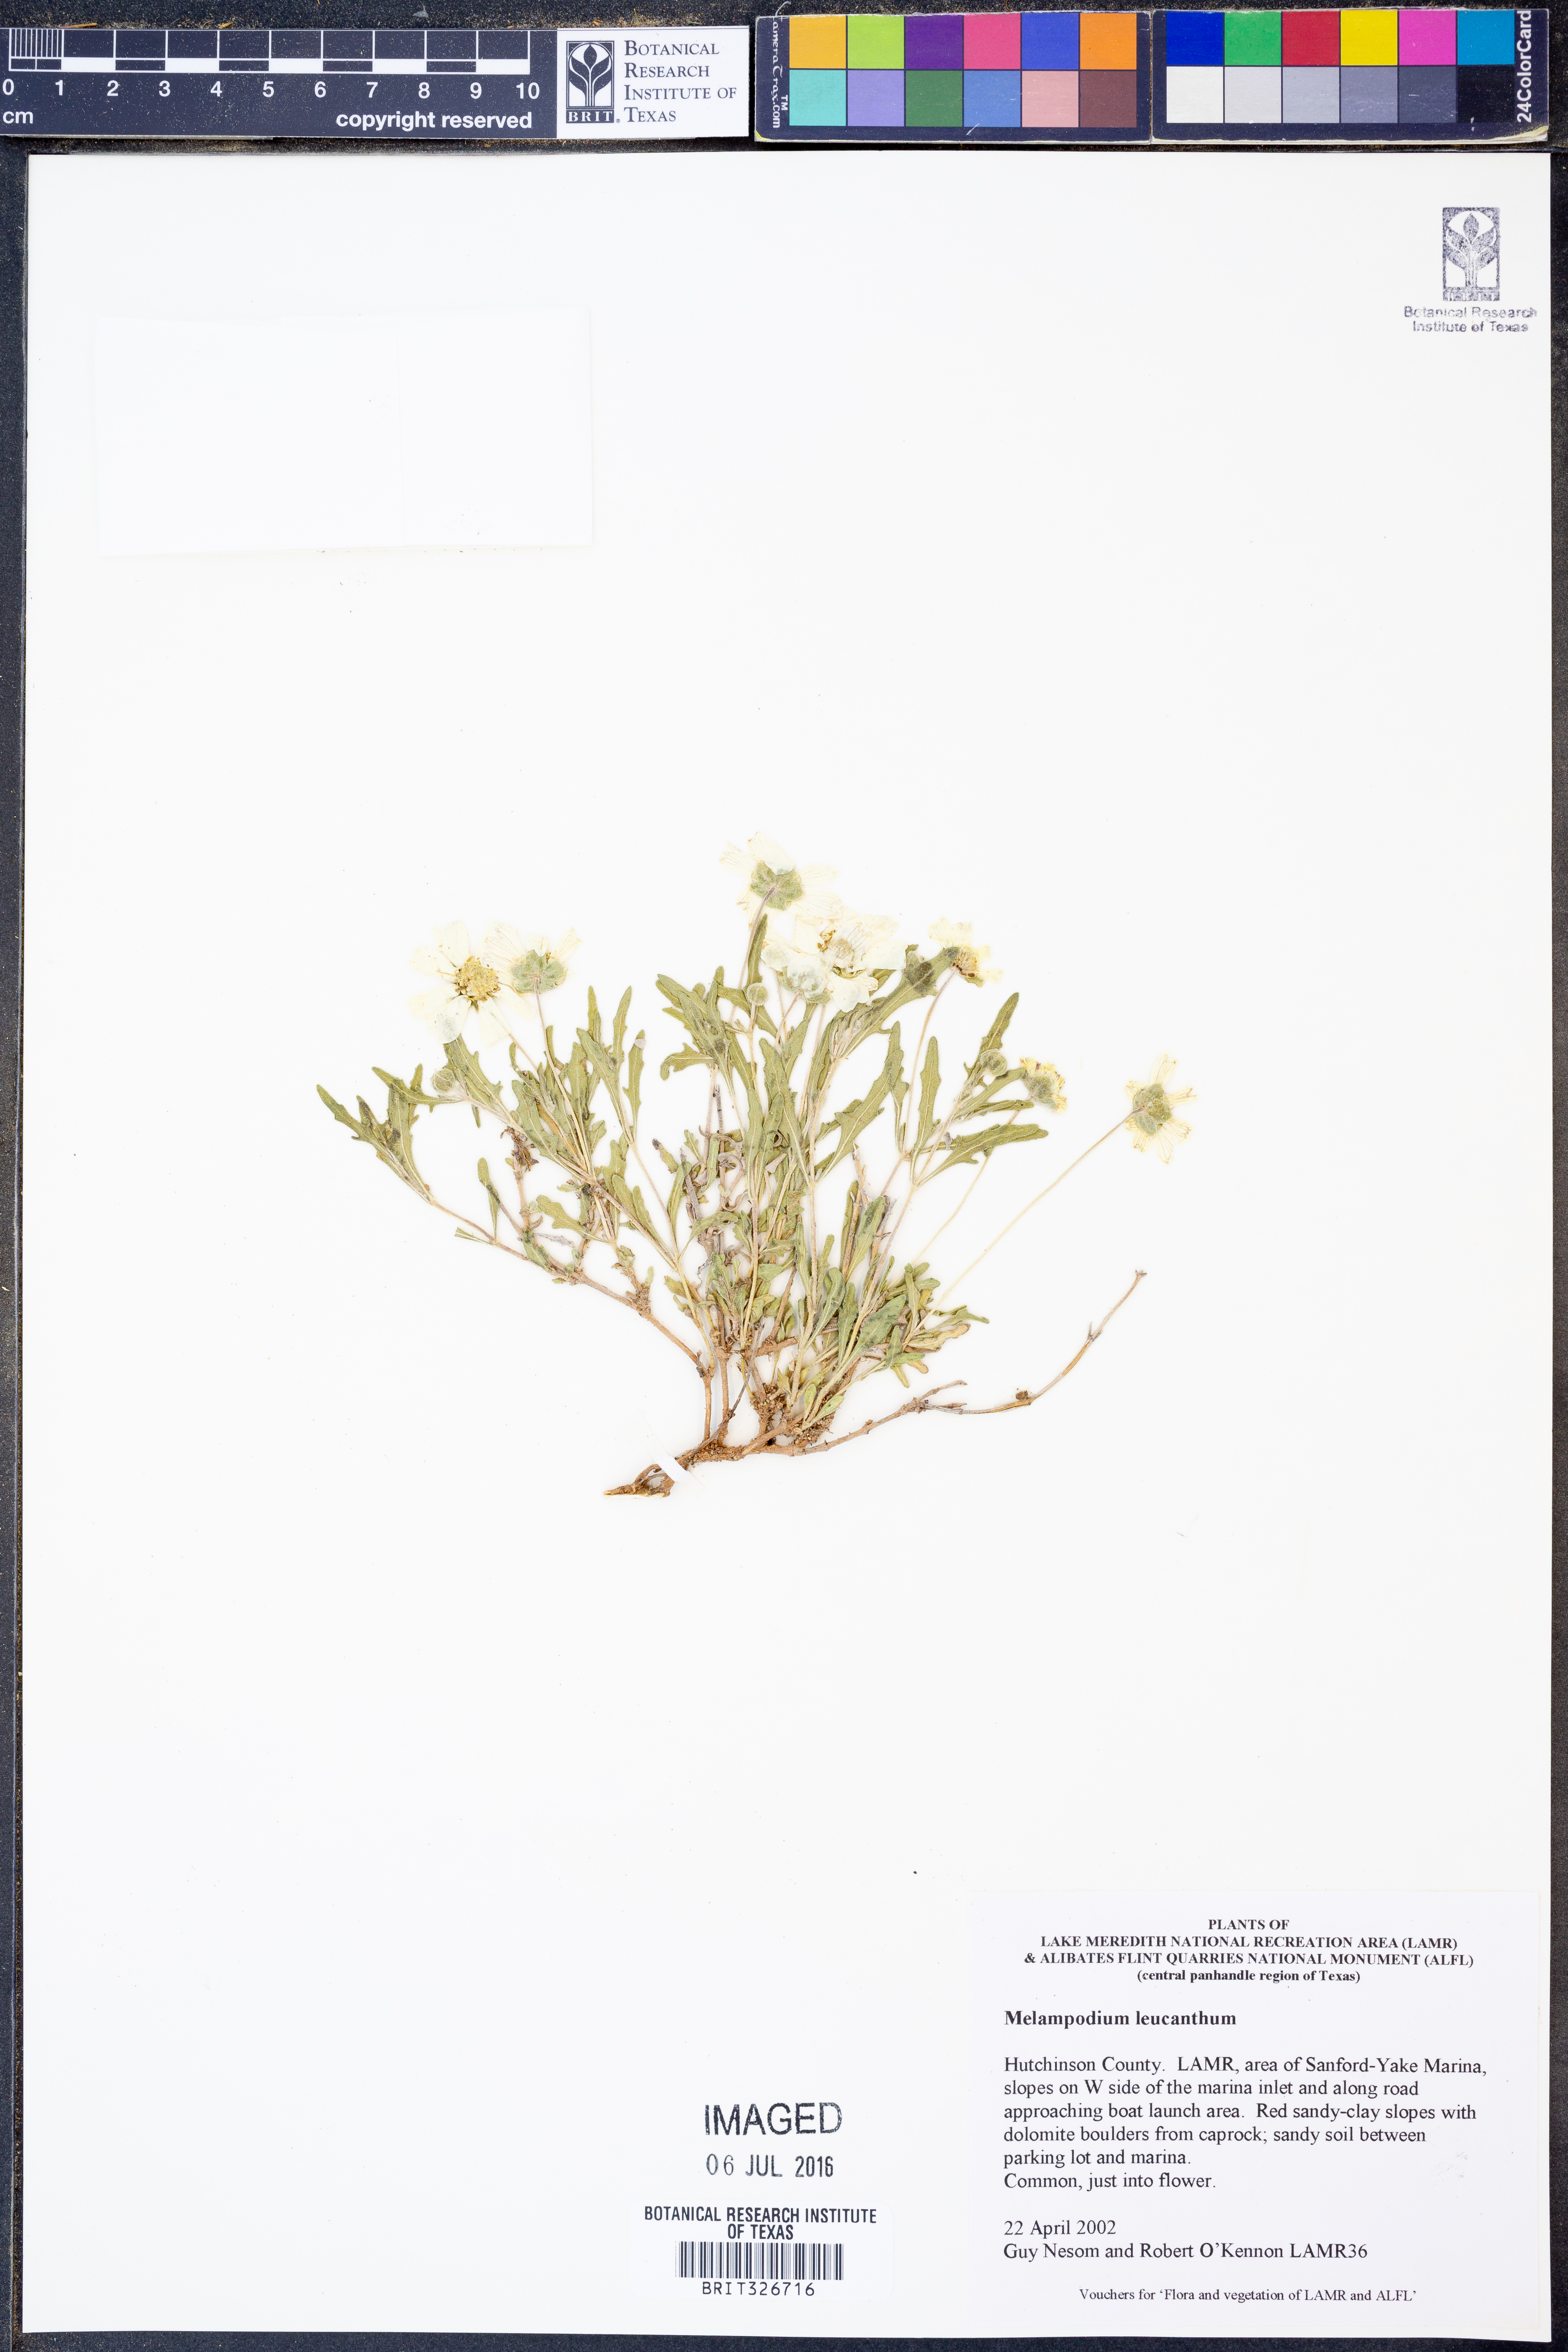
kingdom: Plantae
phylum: Tracheophyta
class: Magnoliopsida
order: Asterales
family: Asteraceae
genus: Melampodium
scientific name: Melampodium leucanthum
